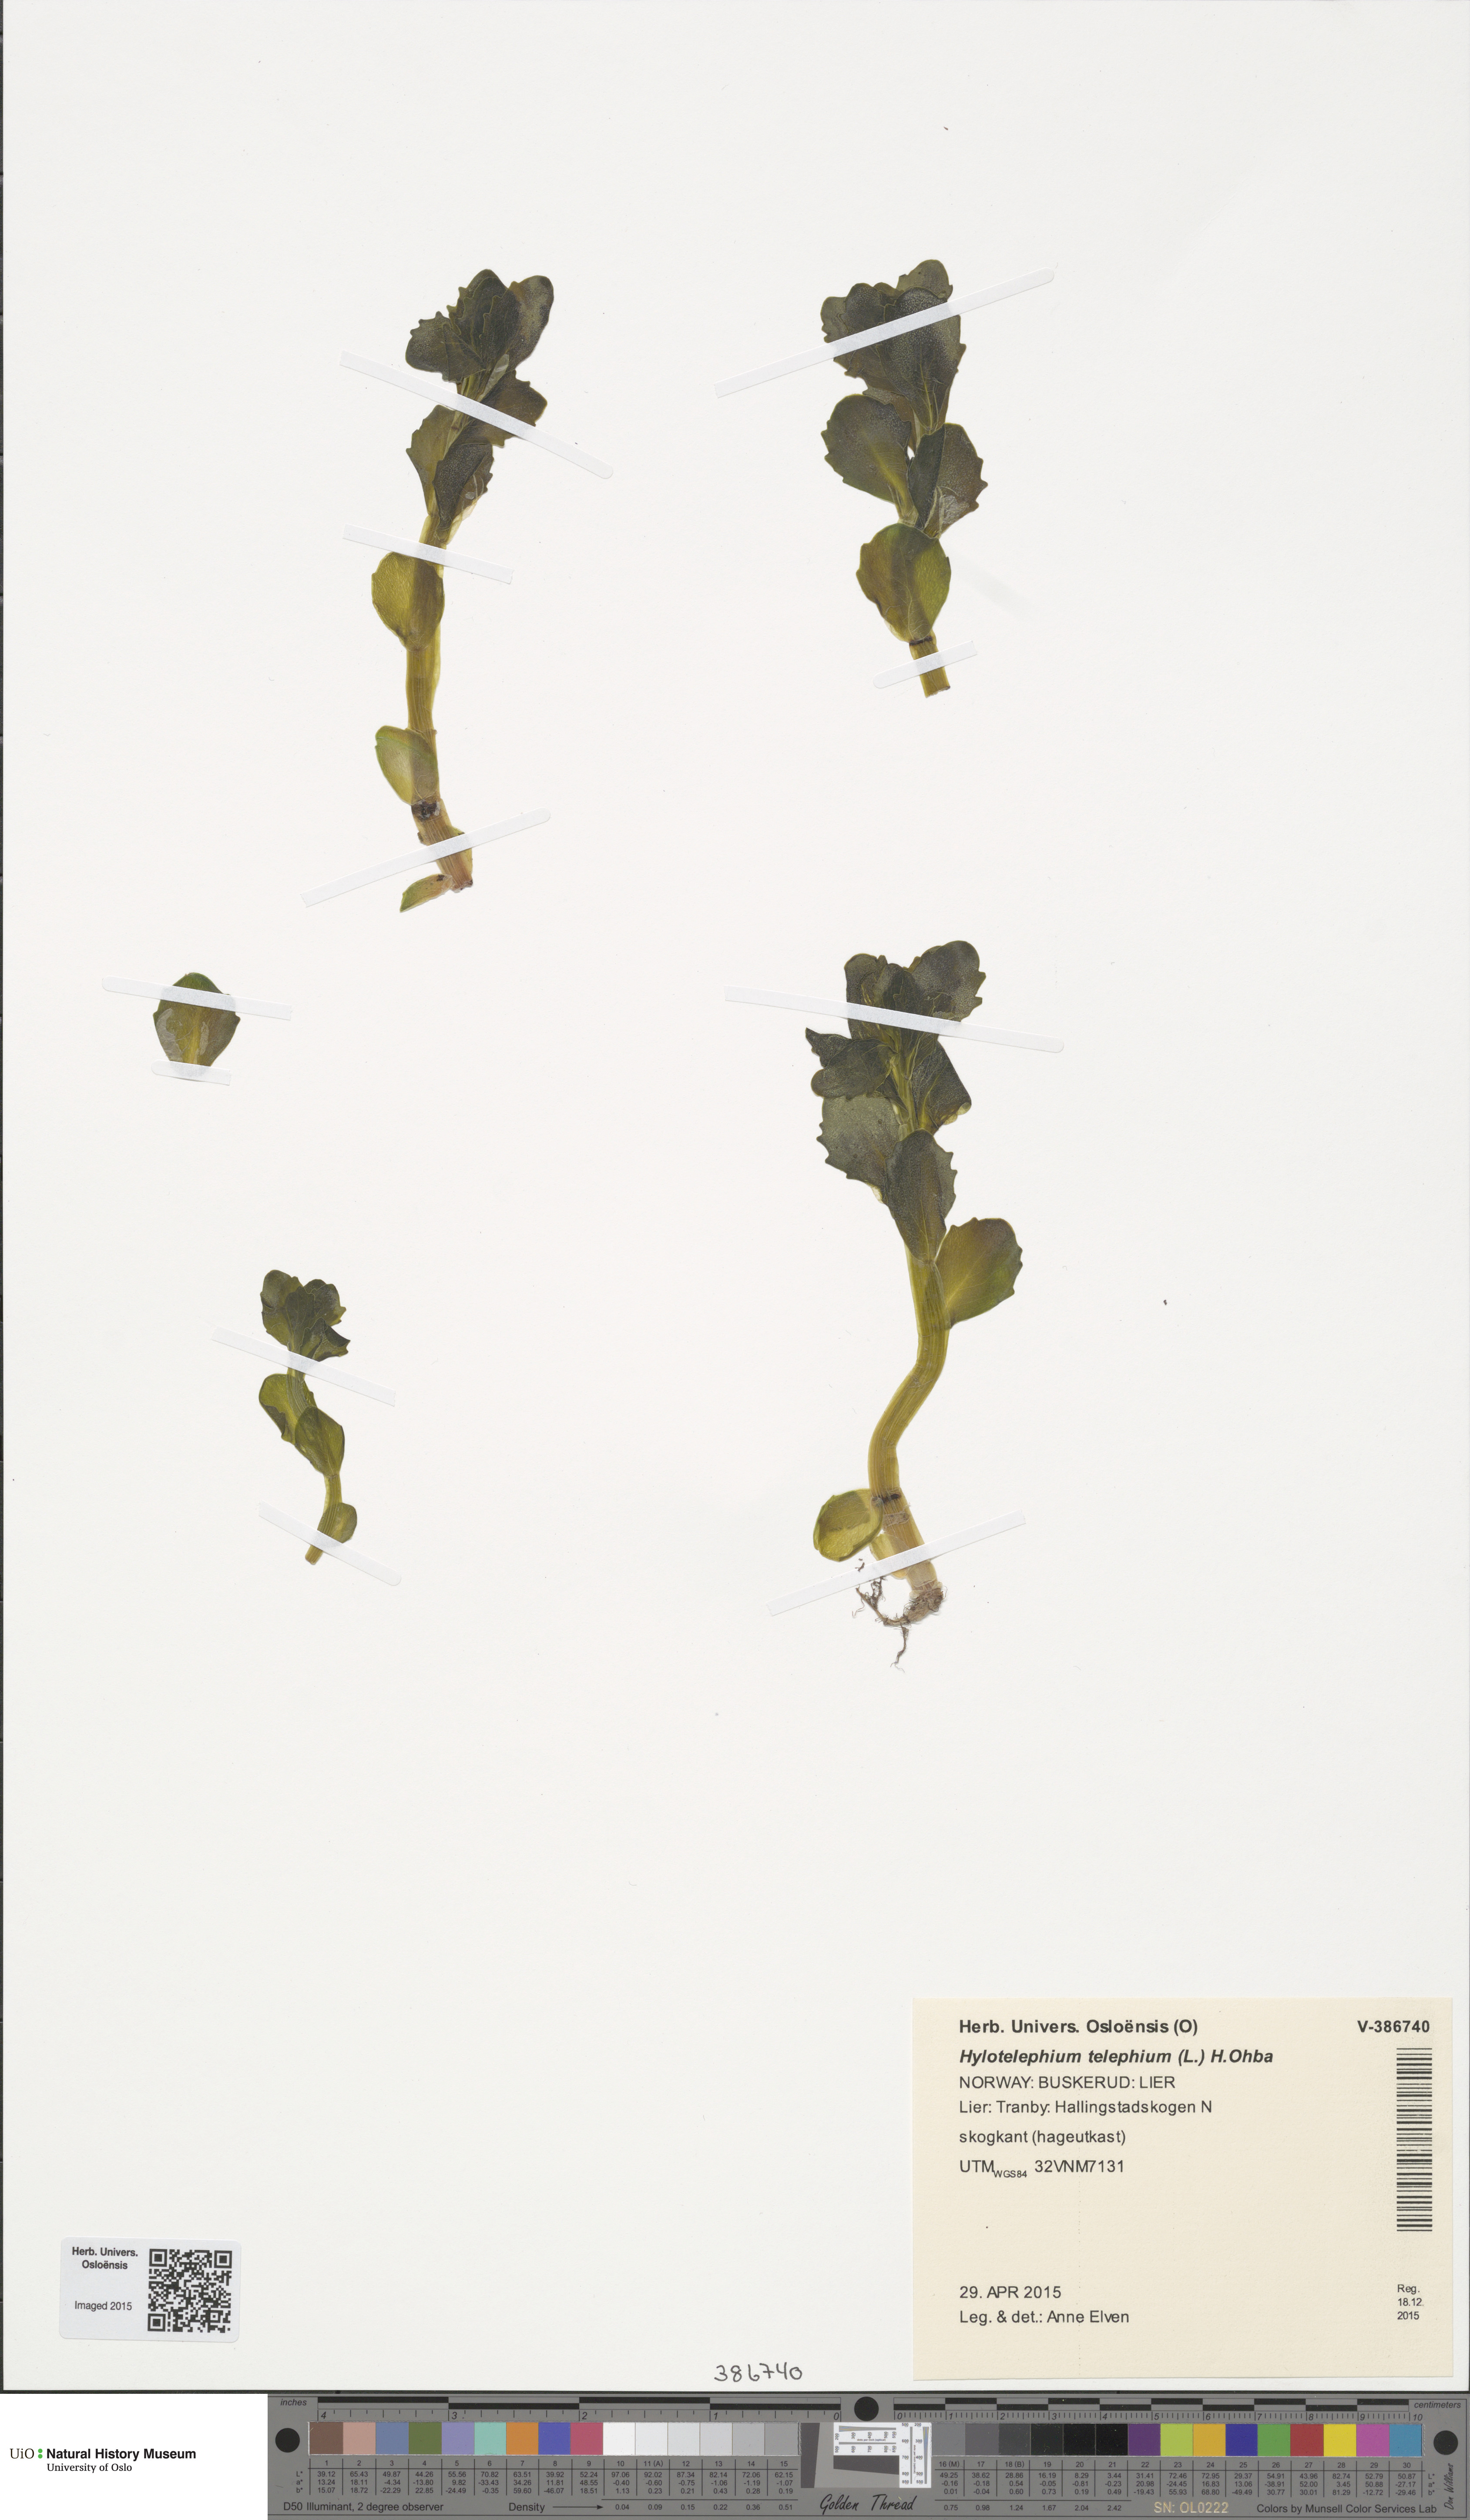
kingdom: Plantae
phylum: Tracheophyta
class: Magnoliopsida
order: Saxifragales
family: Crassulaceae
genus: Hylotelephium
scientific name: Hylotelephium telephium
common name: Live-forever
